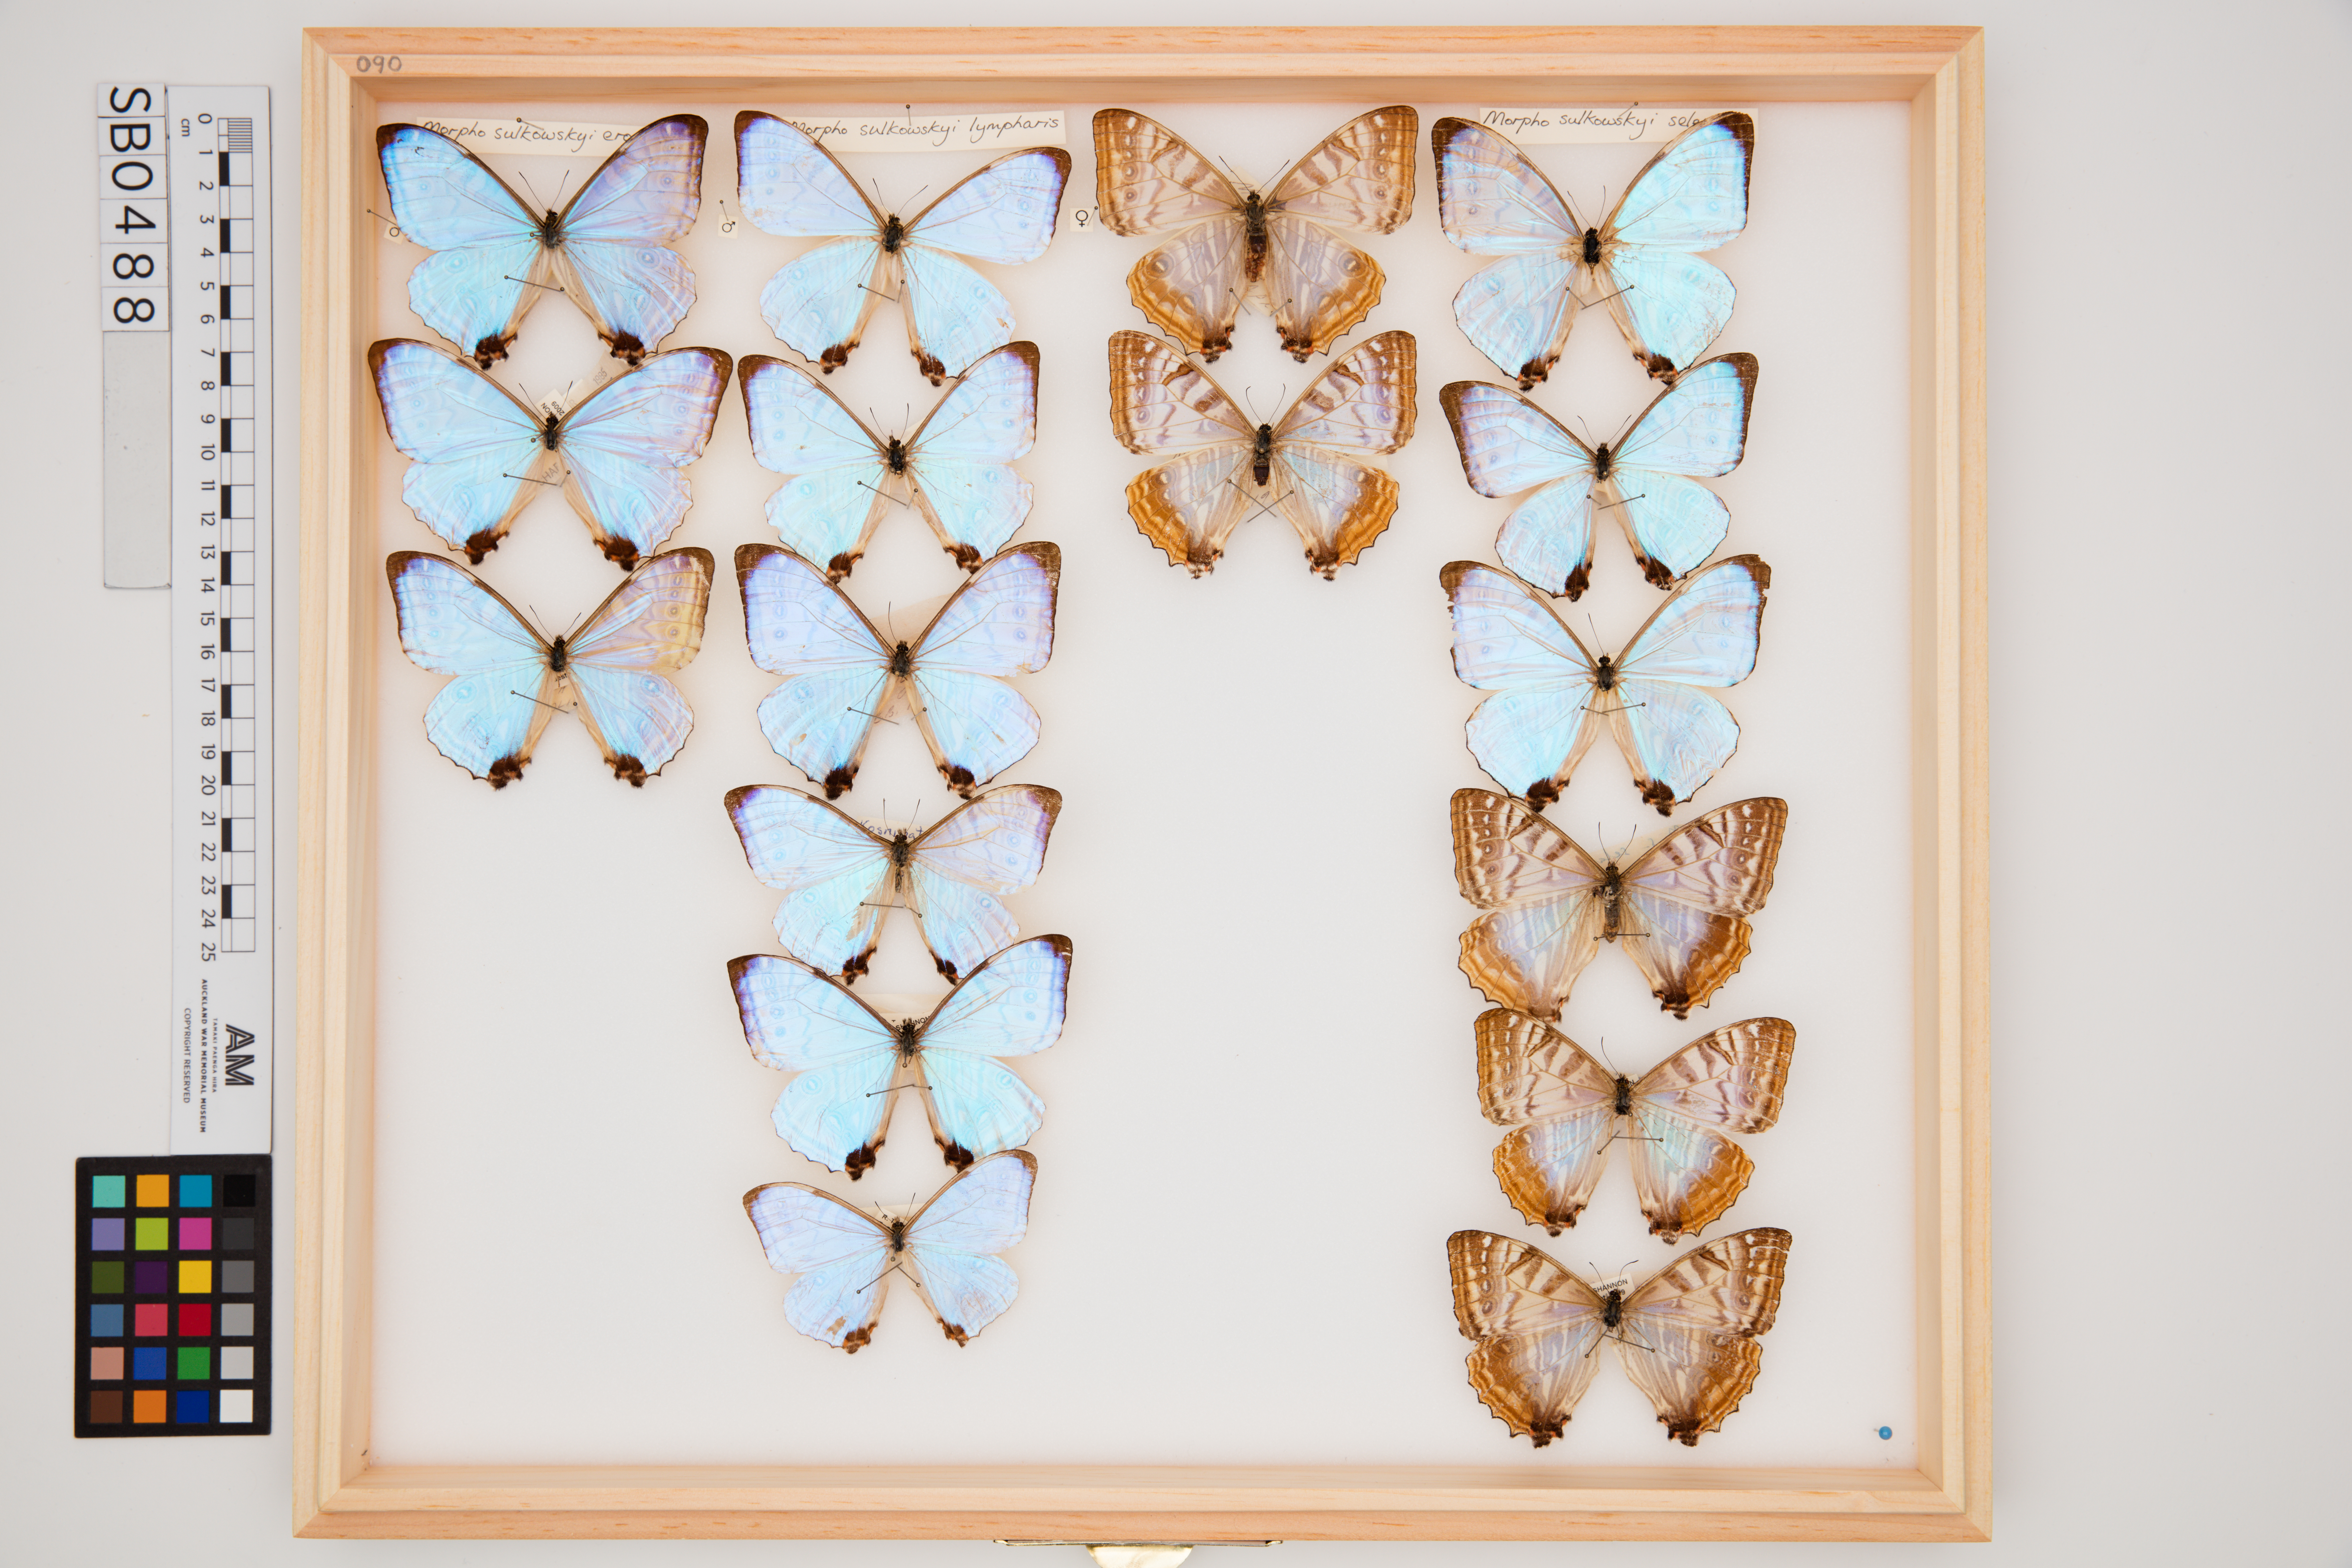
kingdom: Animalia
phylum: Arthropoda
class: Insecta
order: Lepidoptera
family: Nymphalidae
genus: Morpho
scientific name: Morpho sulkowskyi
